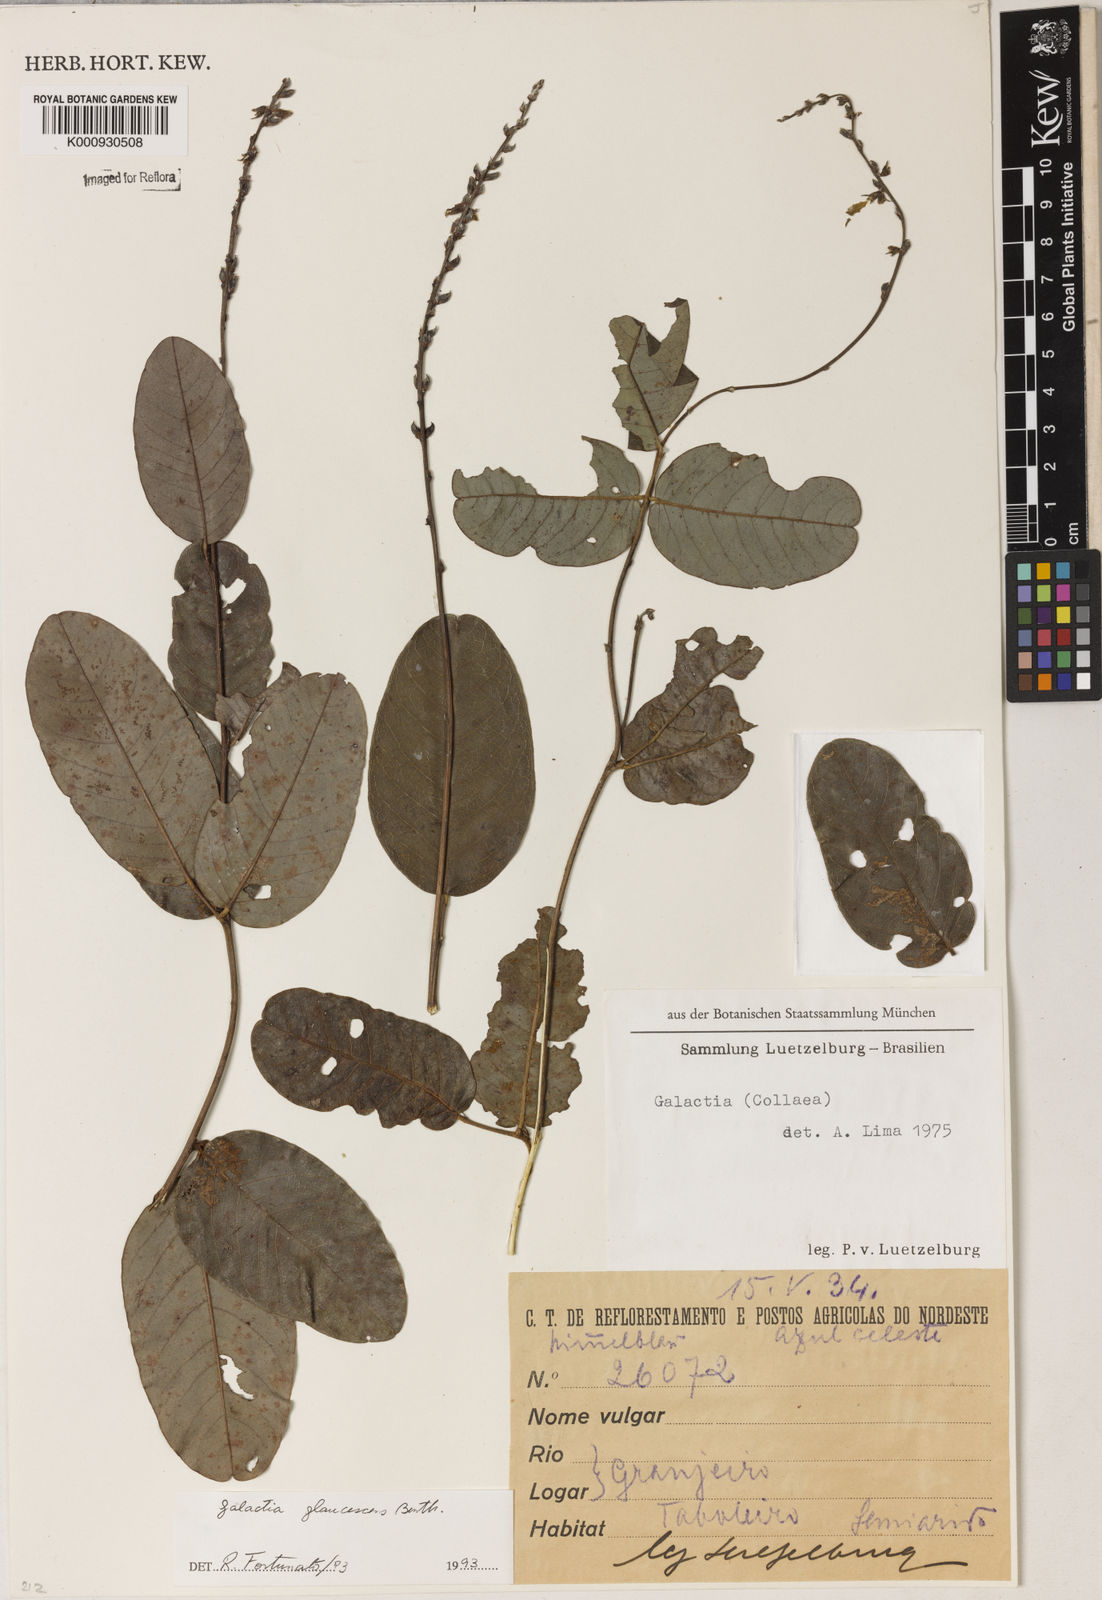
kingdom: Plantae
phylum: Tracheophyta
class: Magnoliopsida
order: Fabales
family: Fabaceae
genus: Galactia
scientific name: Galactia glaucescens
